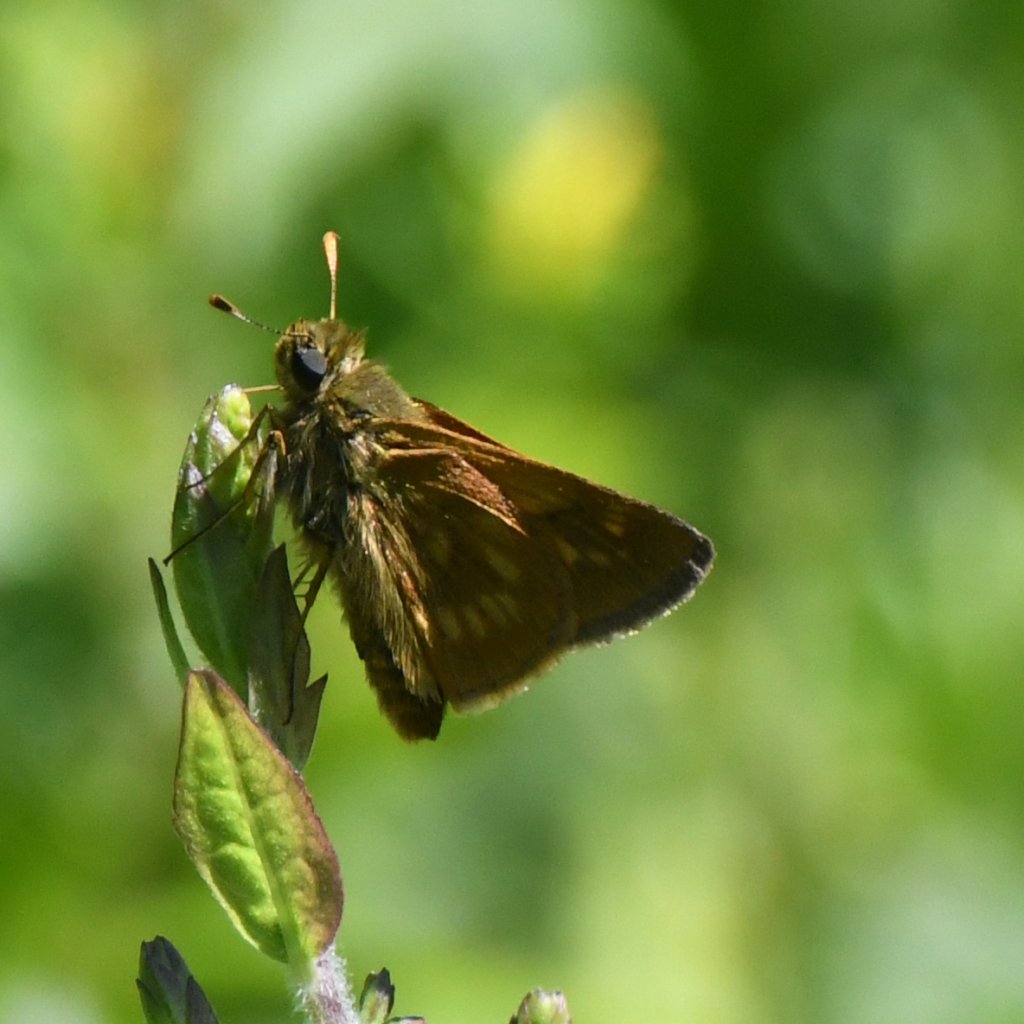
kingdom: Animalia
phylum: Arthropoda
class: Insecta
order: Lepidoptera
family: Hesperiidae
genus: Polites
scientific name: Polites
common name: Long Dash Skipper
